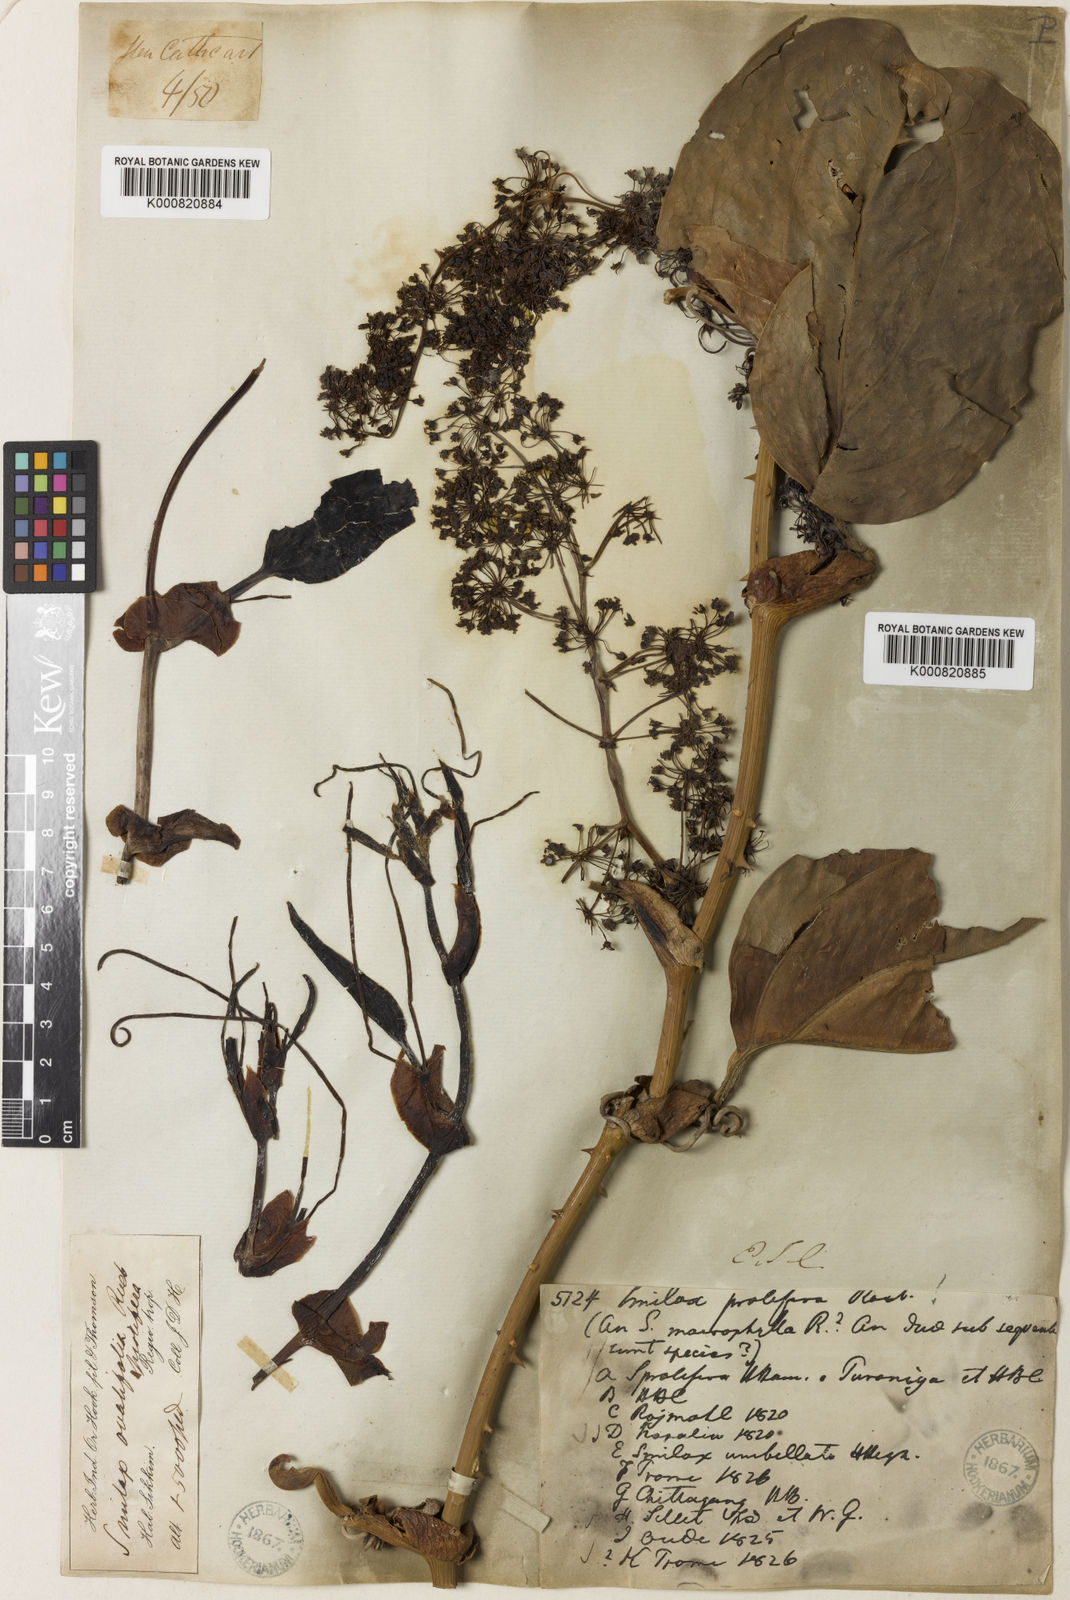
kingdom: Plantae
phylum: Tracheophyta
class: Liliopsida
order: Liliales
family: Smilacaceae
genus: Smilax
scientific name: Smilax prolifera
